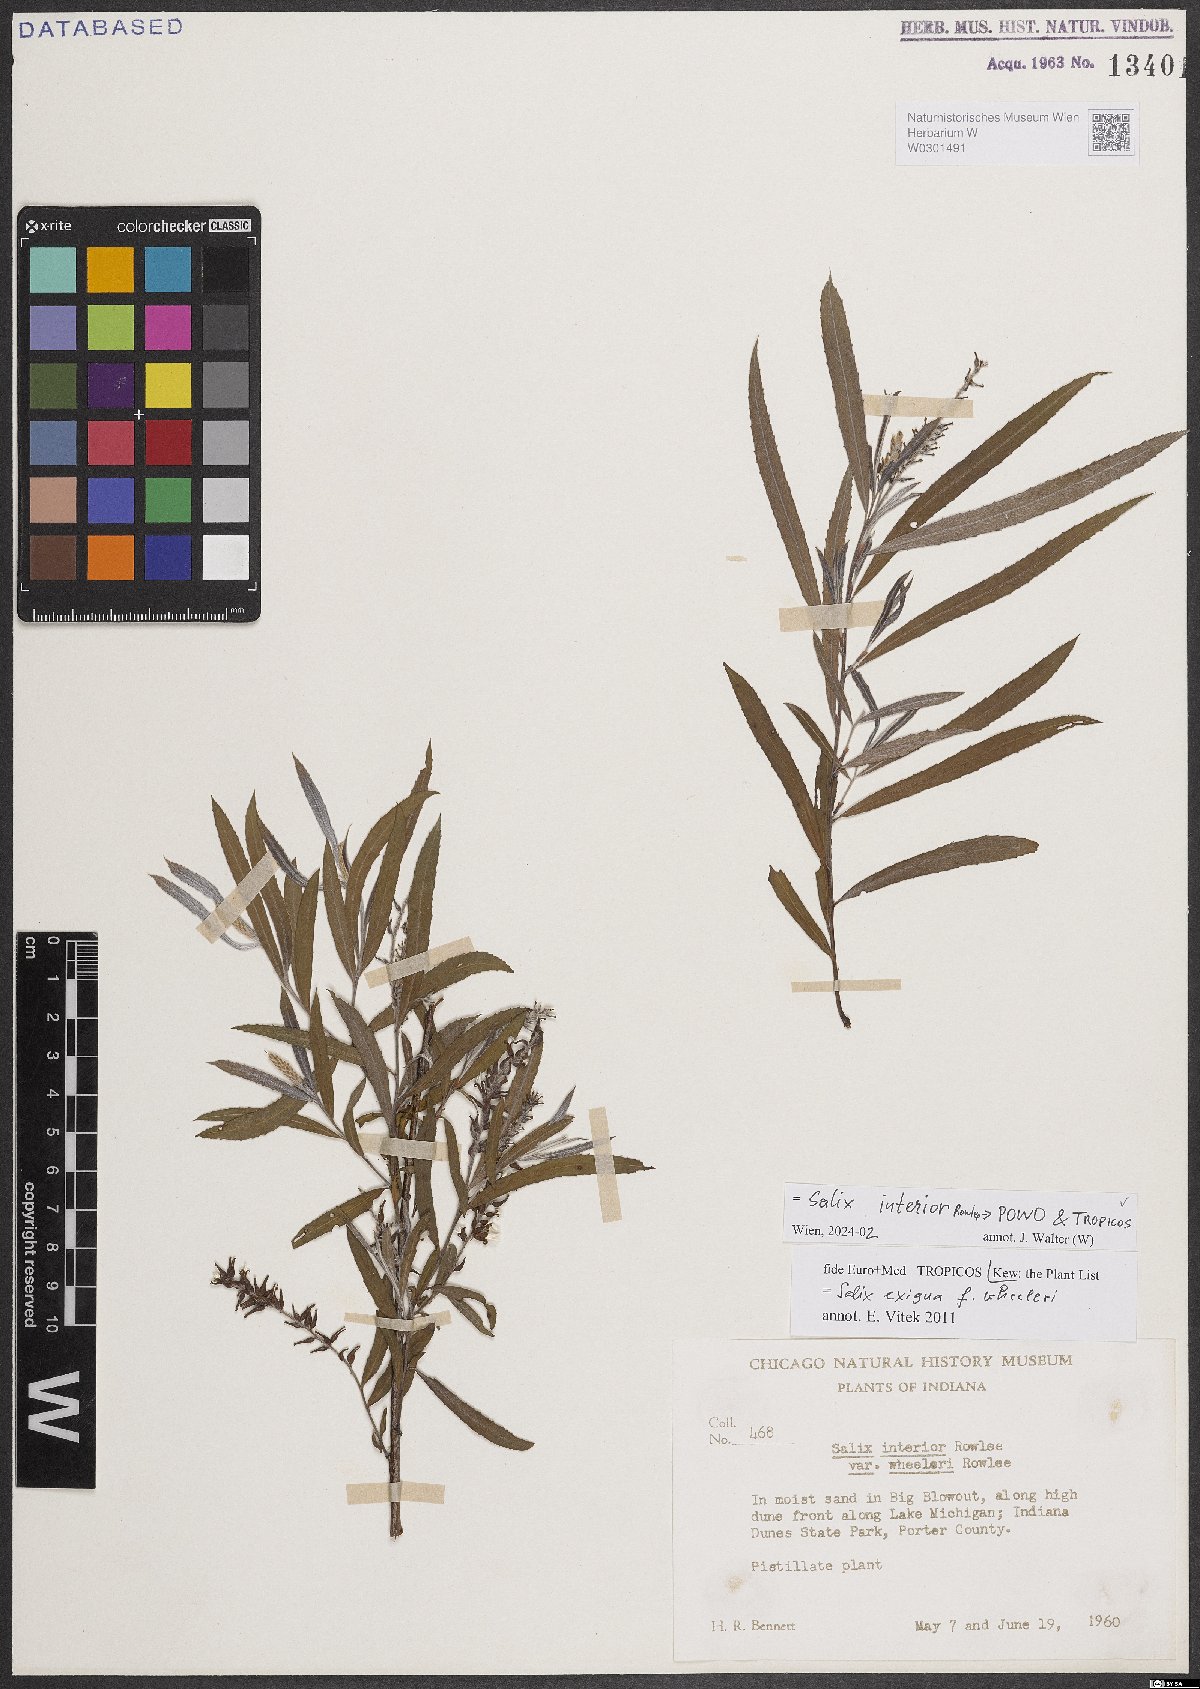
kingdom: Plantae
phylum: Tracheophyta
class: Magnoliopsida
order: Malpighiales
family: Salicaceae
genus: Salix
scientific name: Salix interior
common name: Sandbar willow
